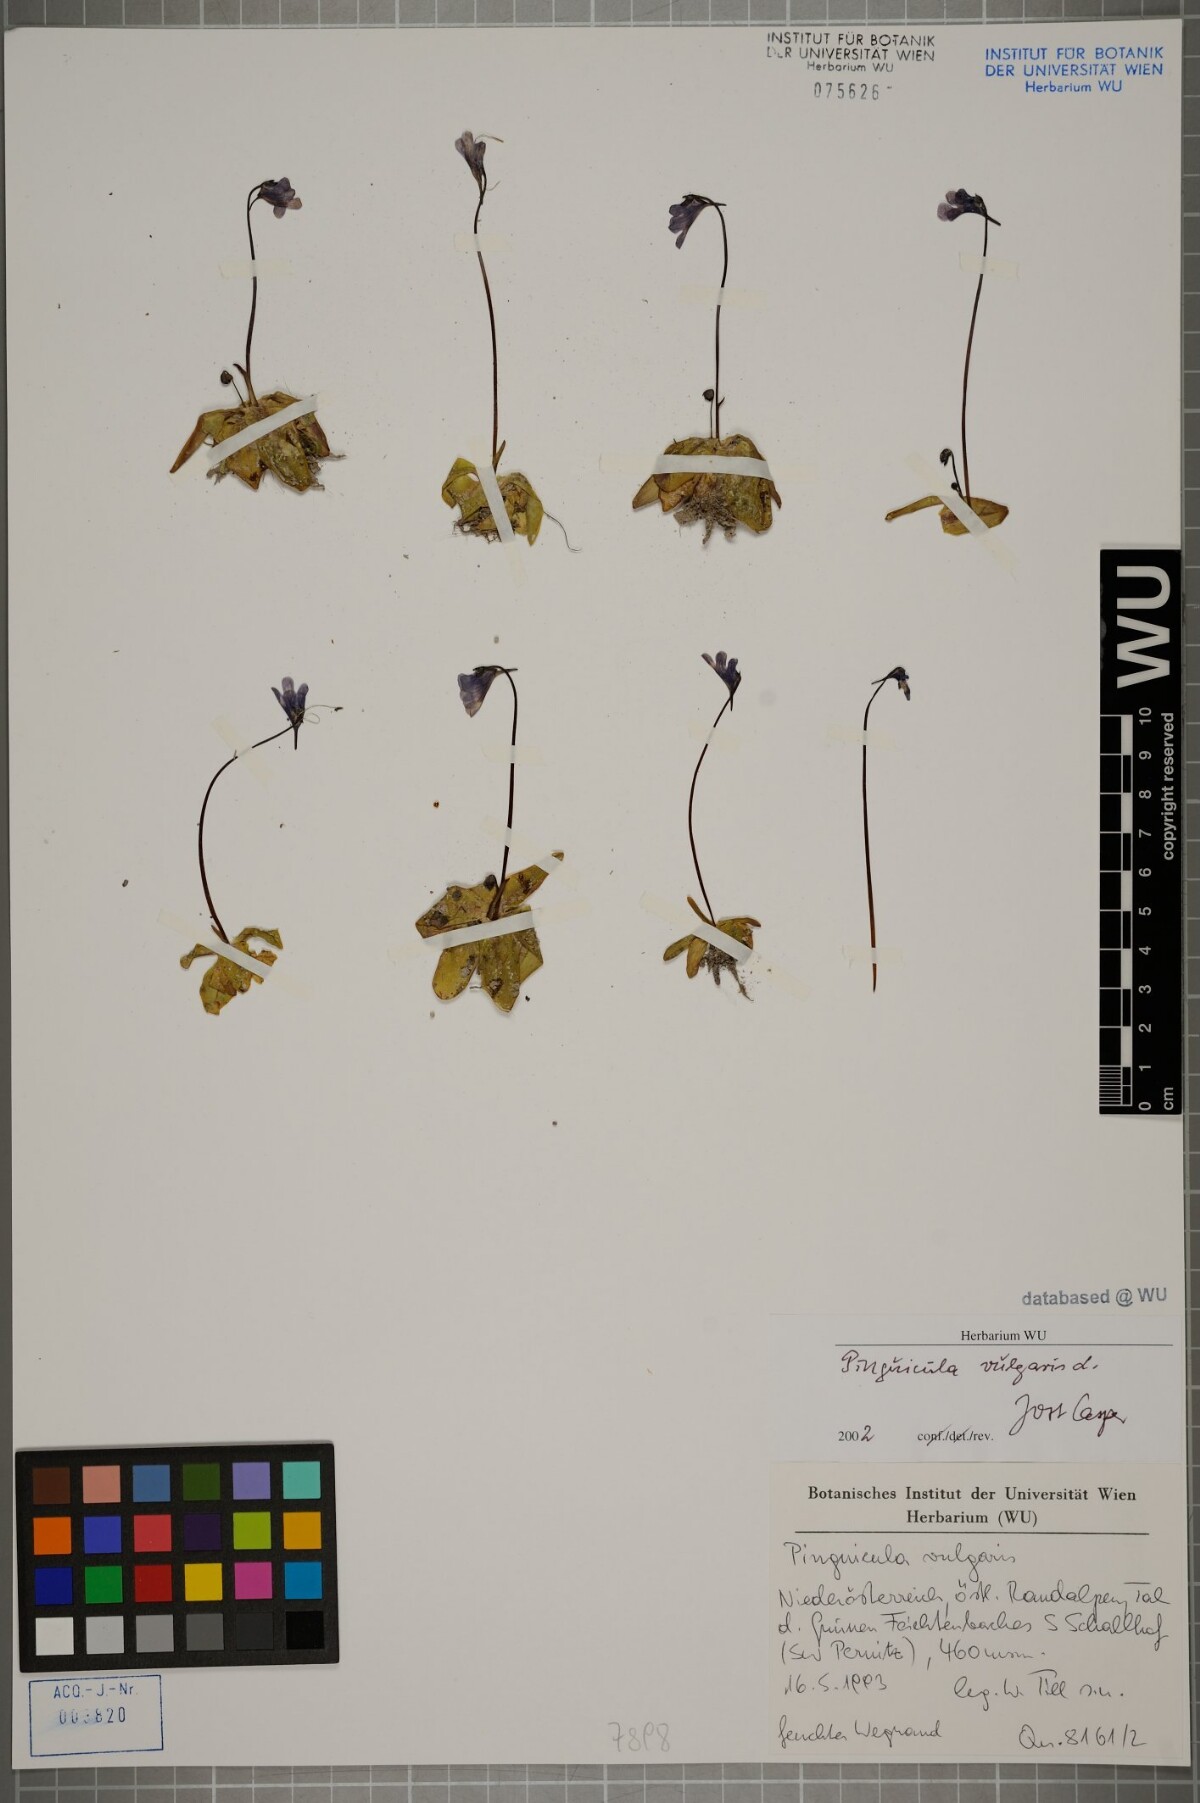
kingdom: Plantae
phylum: Tracheophyta
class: Magnoliopsida
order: Lamiales
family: Lentibulariaceae
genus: Pinguicula
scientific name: Pinguicula vulgaris
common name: Common butterwort
